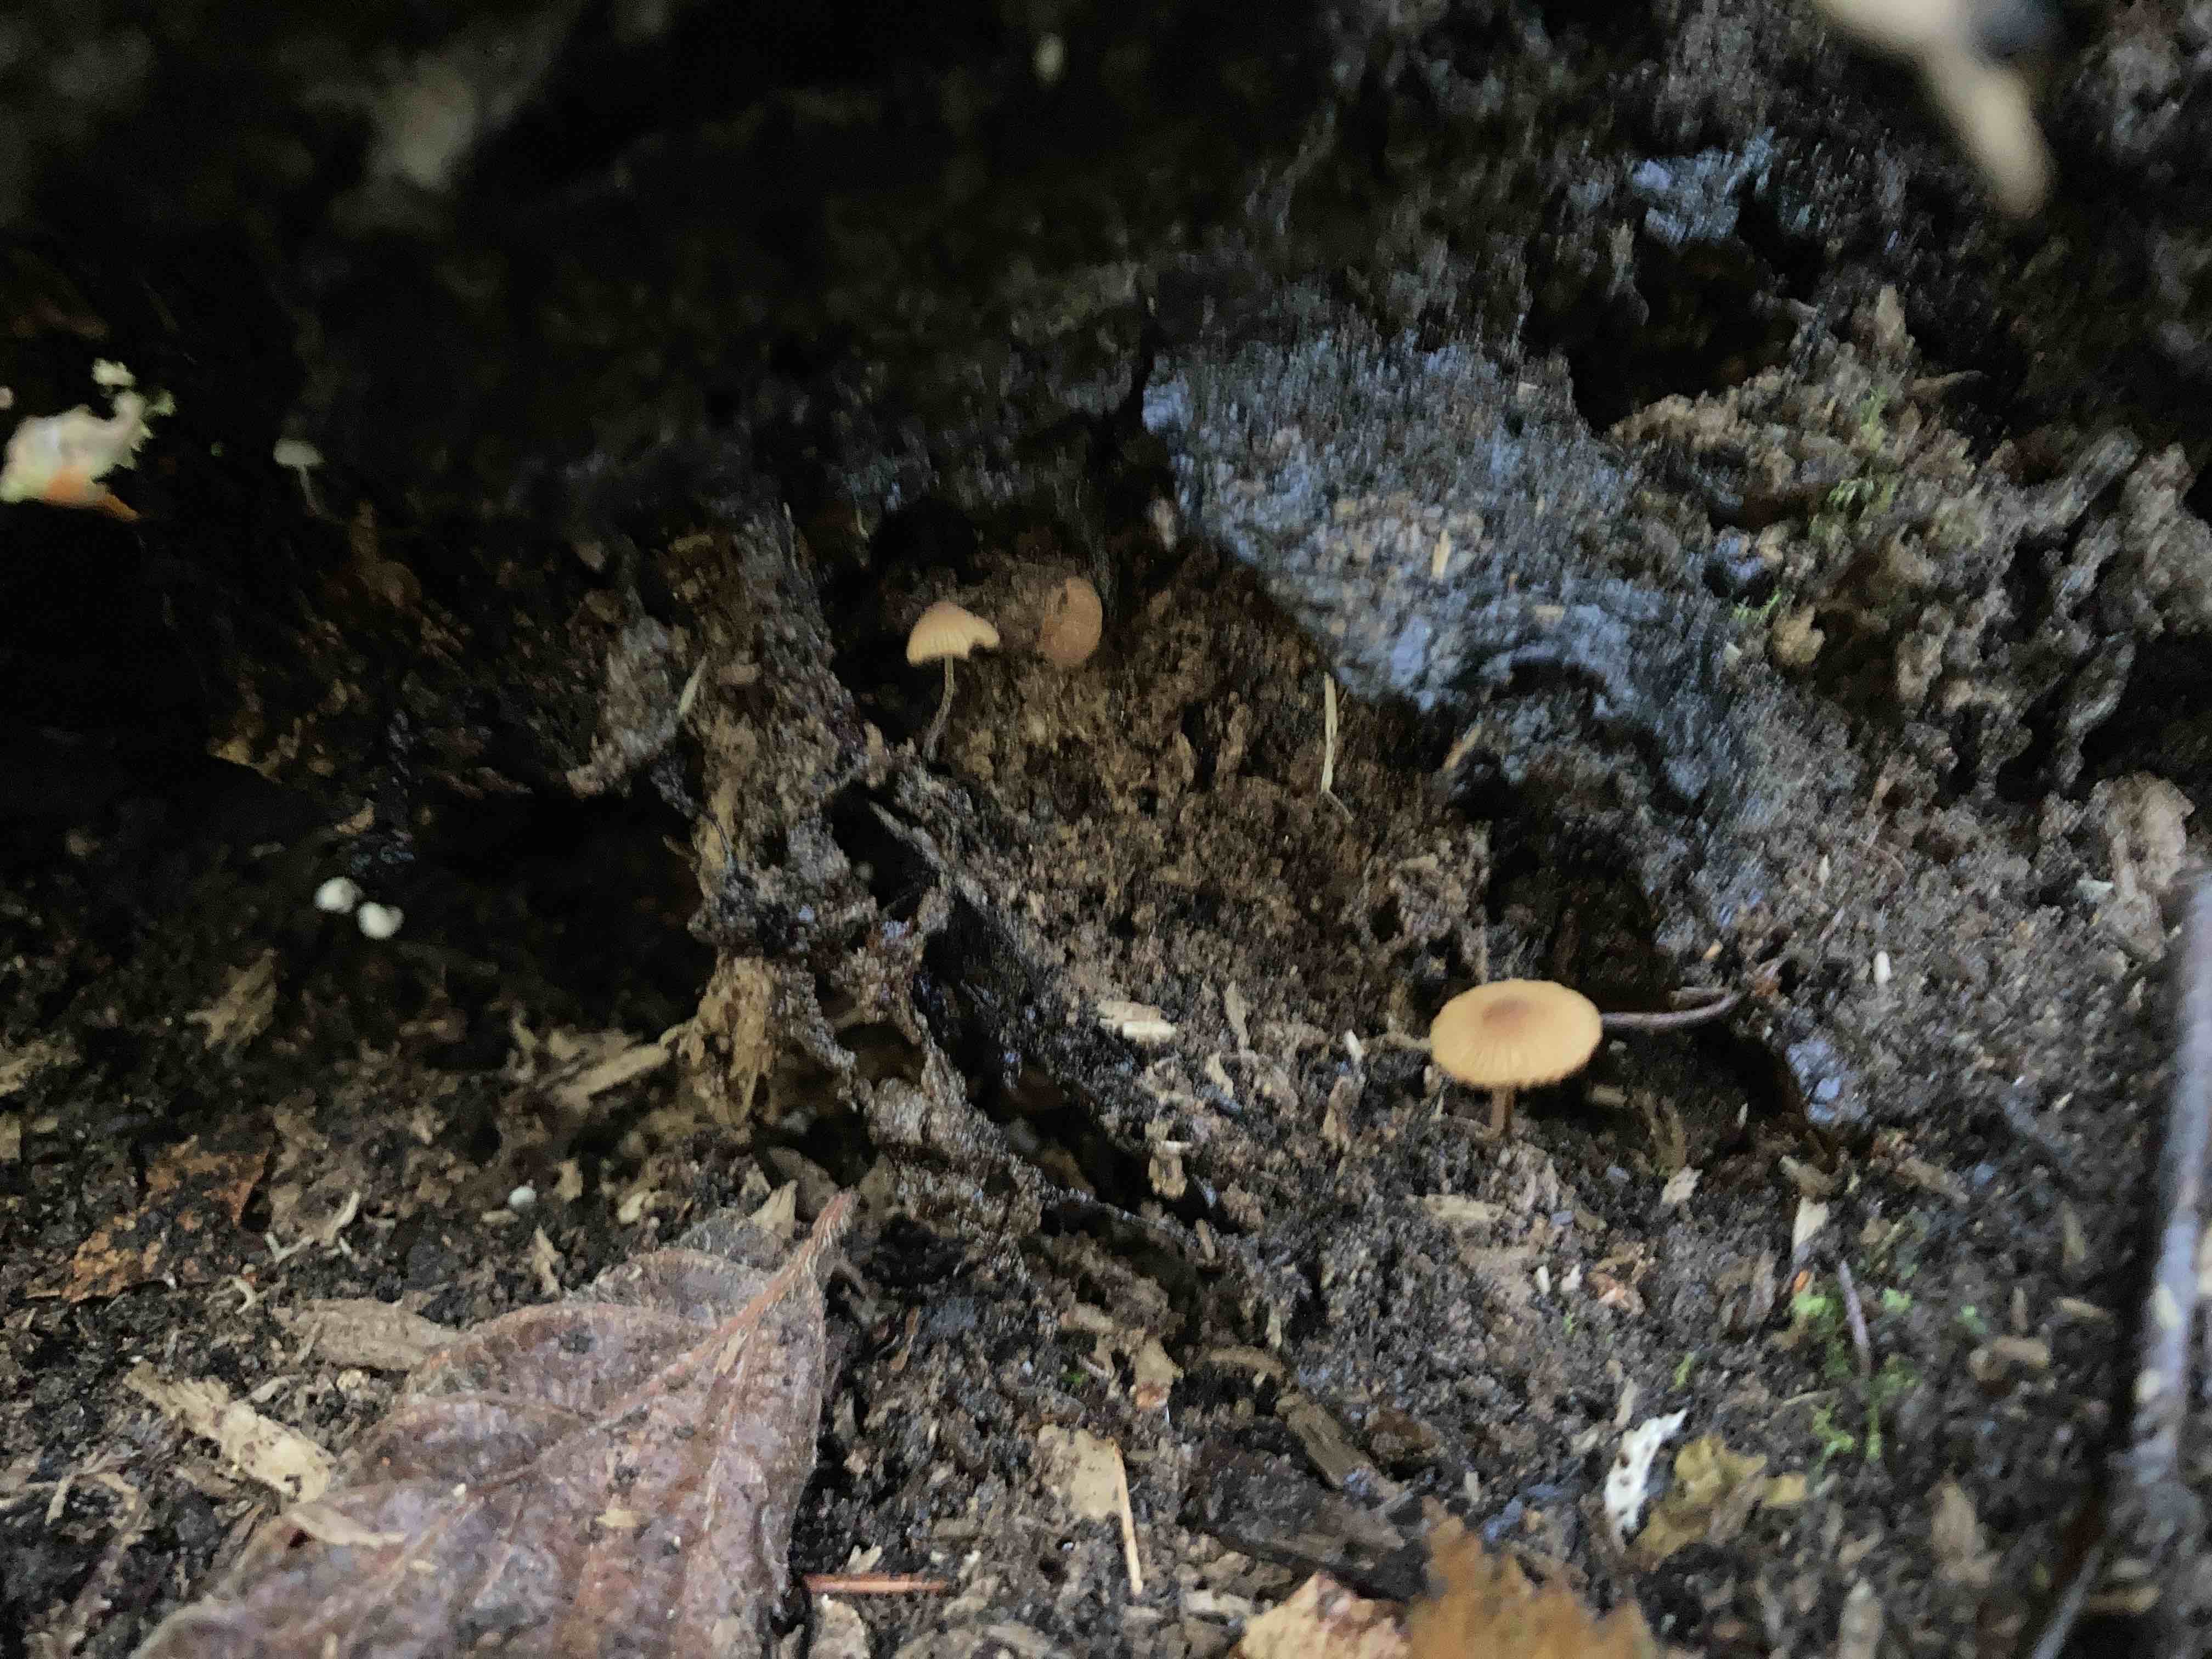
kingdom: Fungi
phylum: Basidiomycota
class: Agaricomycetes
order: Agaricales
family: Bolbitiaceae
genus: Conocybe
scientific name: Conocybe dumetorum
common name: Copse conecap
